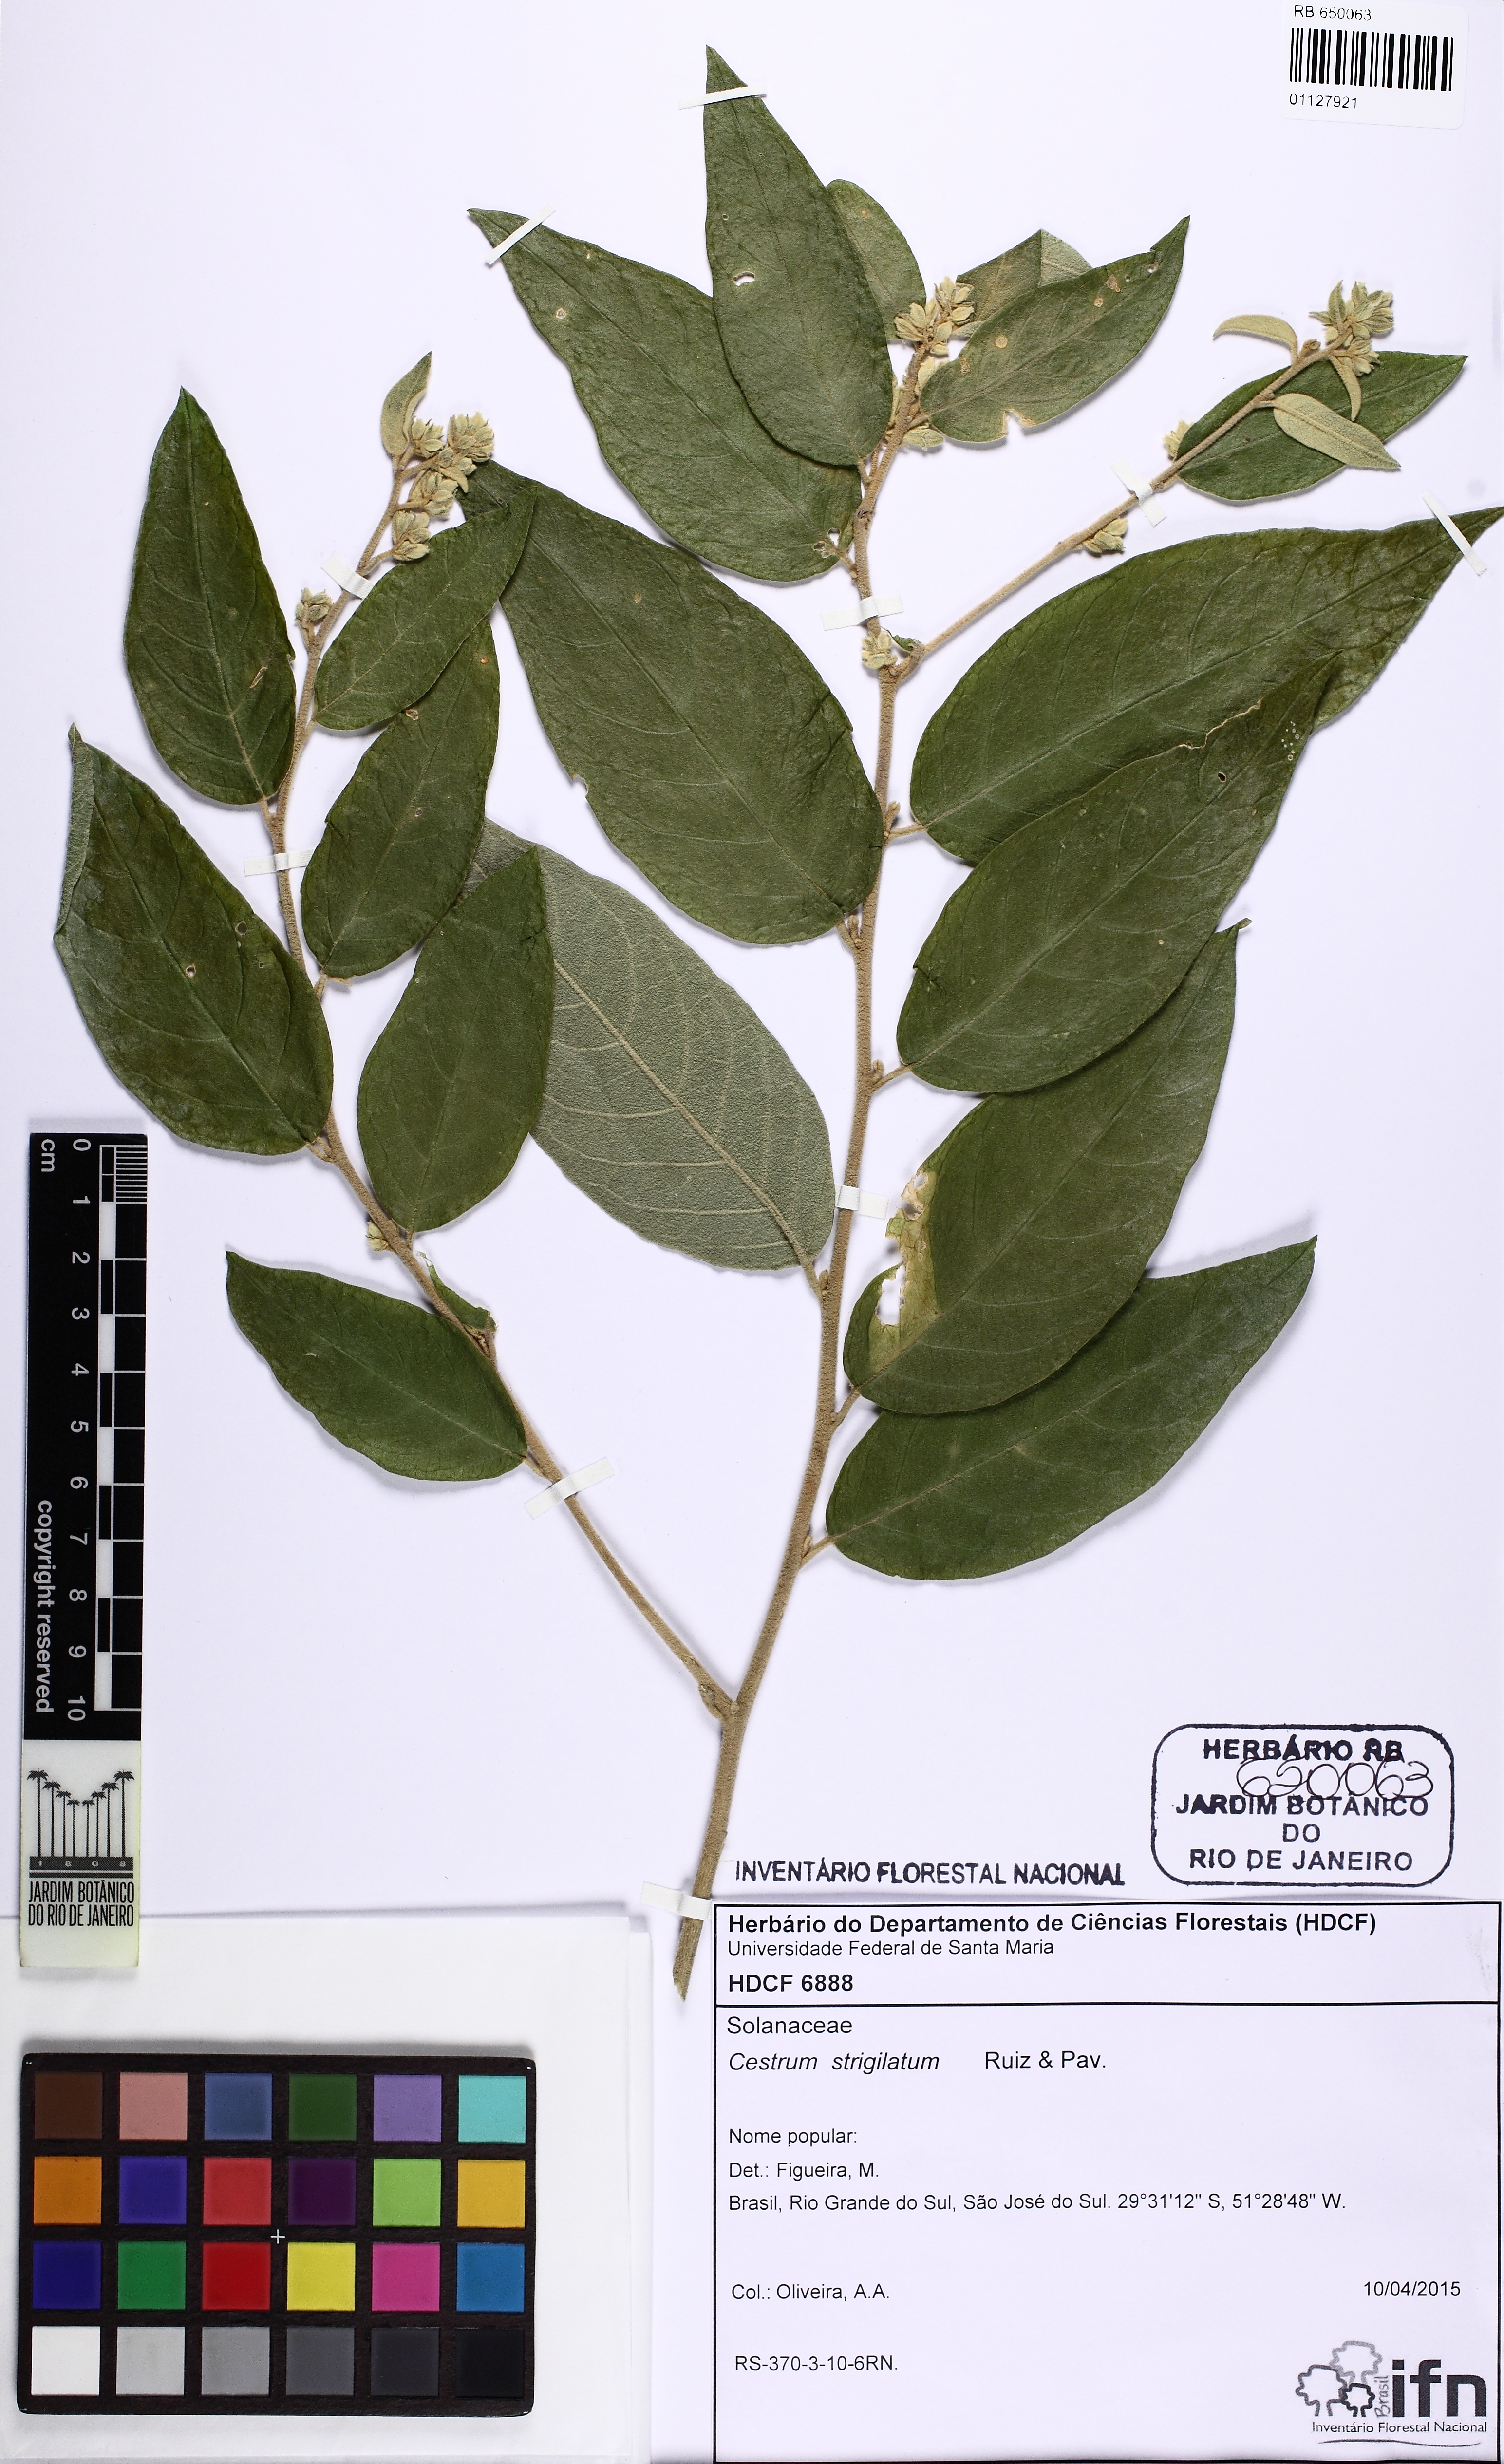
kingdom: Plantae
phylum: Tracheophyta
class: Magnoliopsida
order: Solanales
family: Solanaceae
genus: Cestrum
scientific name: Cestrum strigillatum
